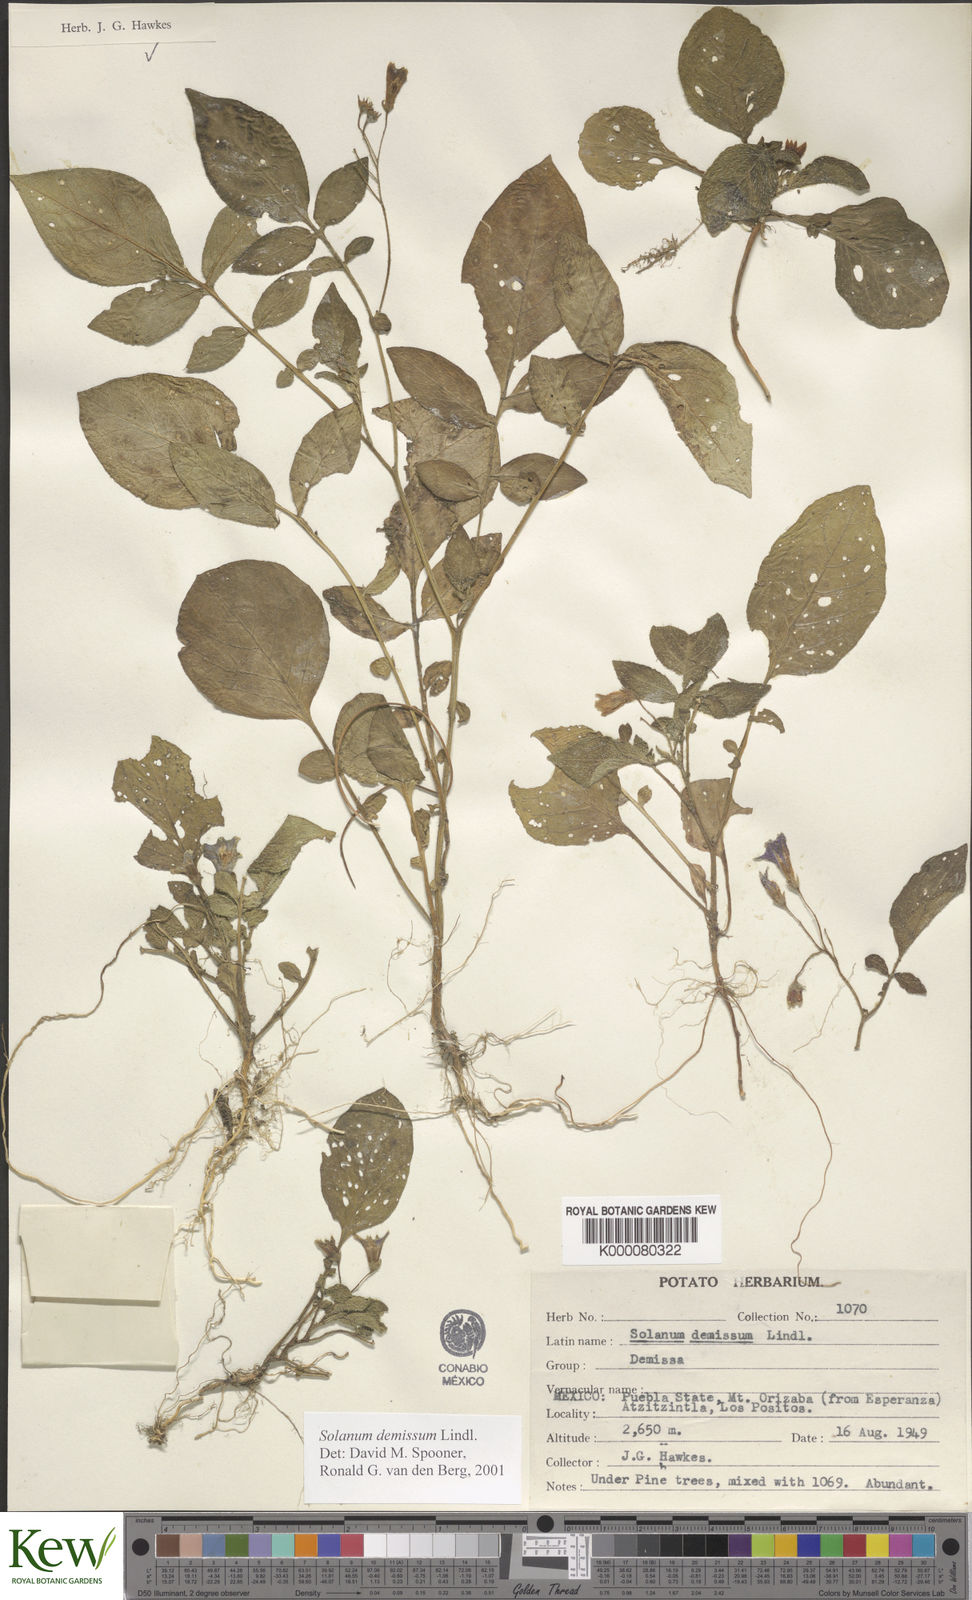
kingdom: Plantae
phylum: Tracheophyta
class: Magnoliopsida
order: Solanales
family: Solanaceae
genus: Solanum
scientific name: Solanum demissum
